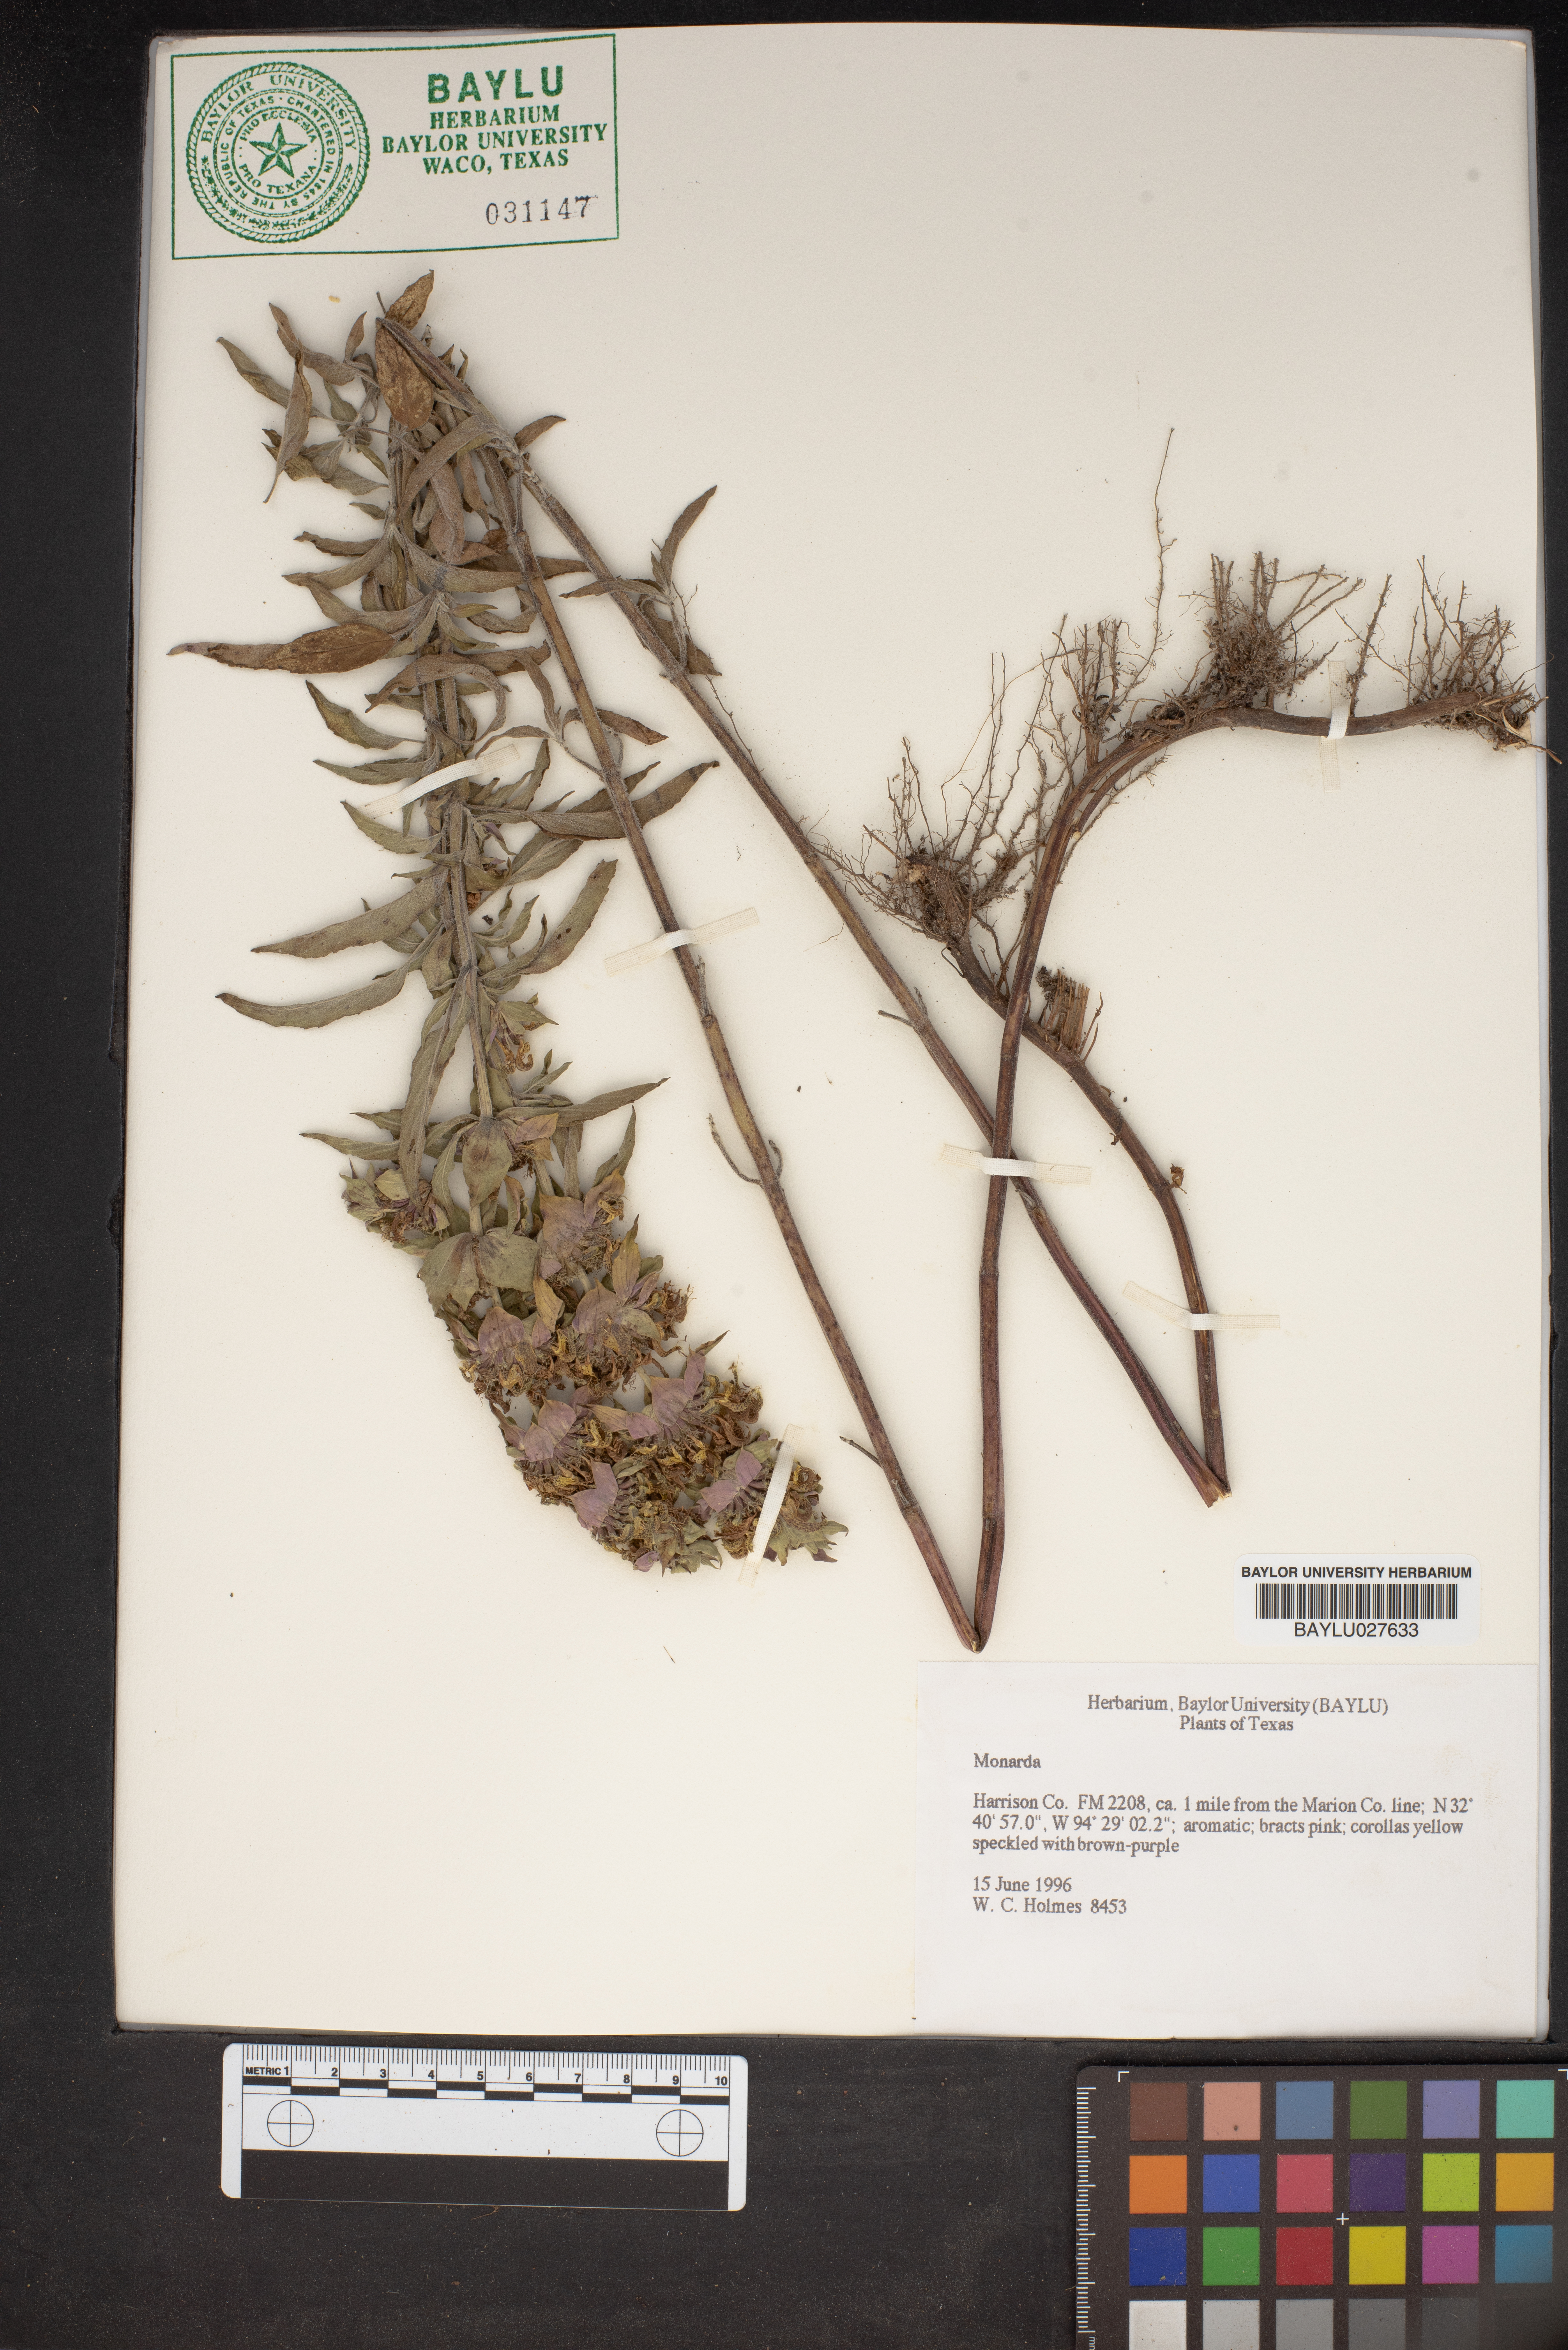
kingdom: Plantae
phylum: Tracheophyta
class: Magnoliopsida
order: Lamiales
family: Lamiaceae
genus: Monarda
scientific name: Monarda
